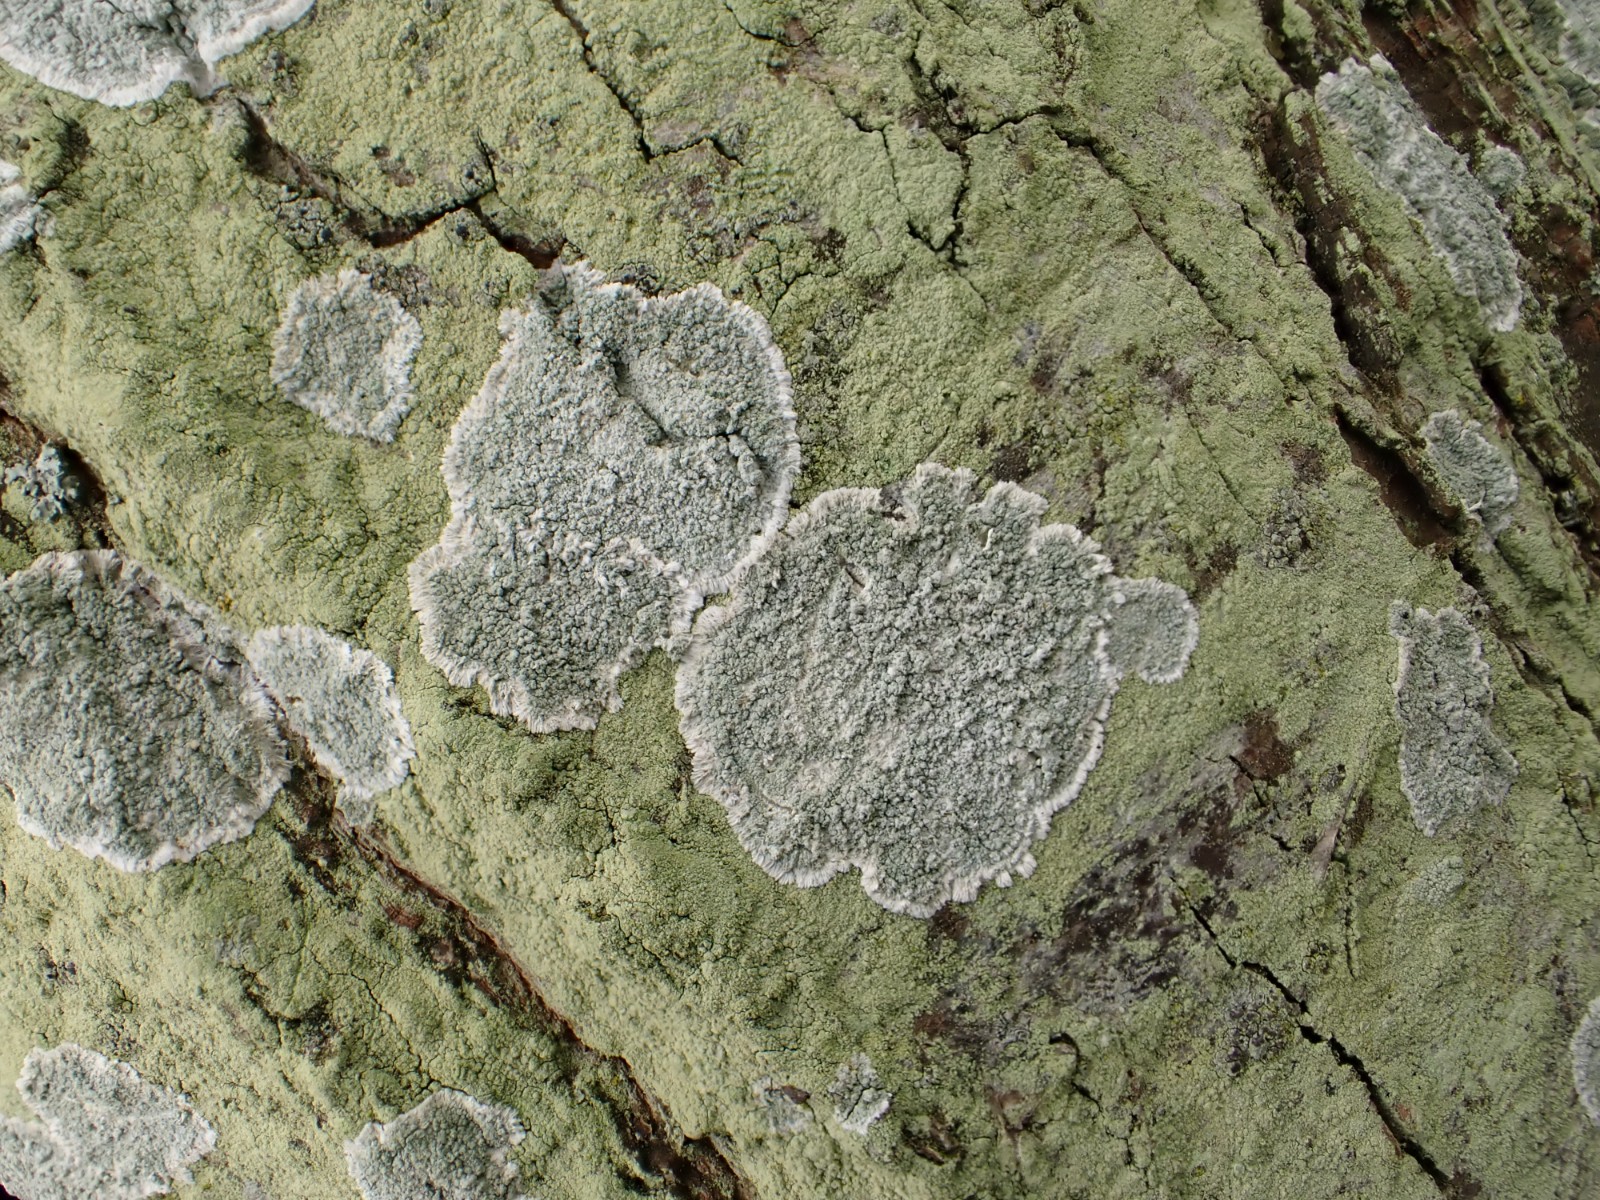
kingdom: Fungi
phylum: Ascomycota
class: Lecanoromycetes
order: Lecanorales
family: Haematommataceae
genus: Haematomma
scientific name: Haematomma ochroleucum
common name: gul trådkantlav
